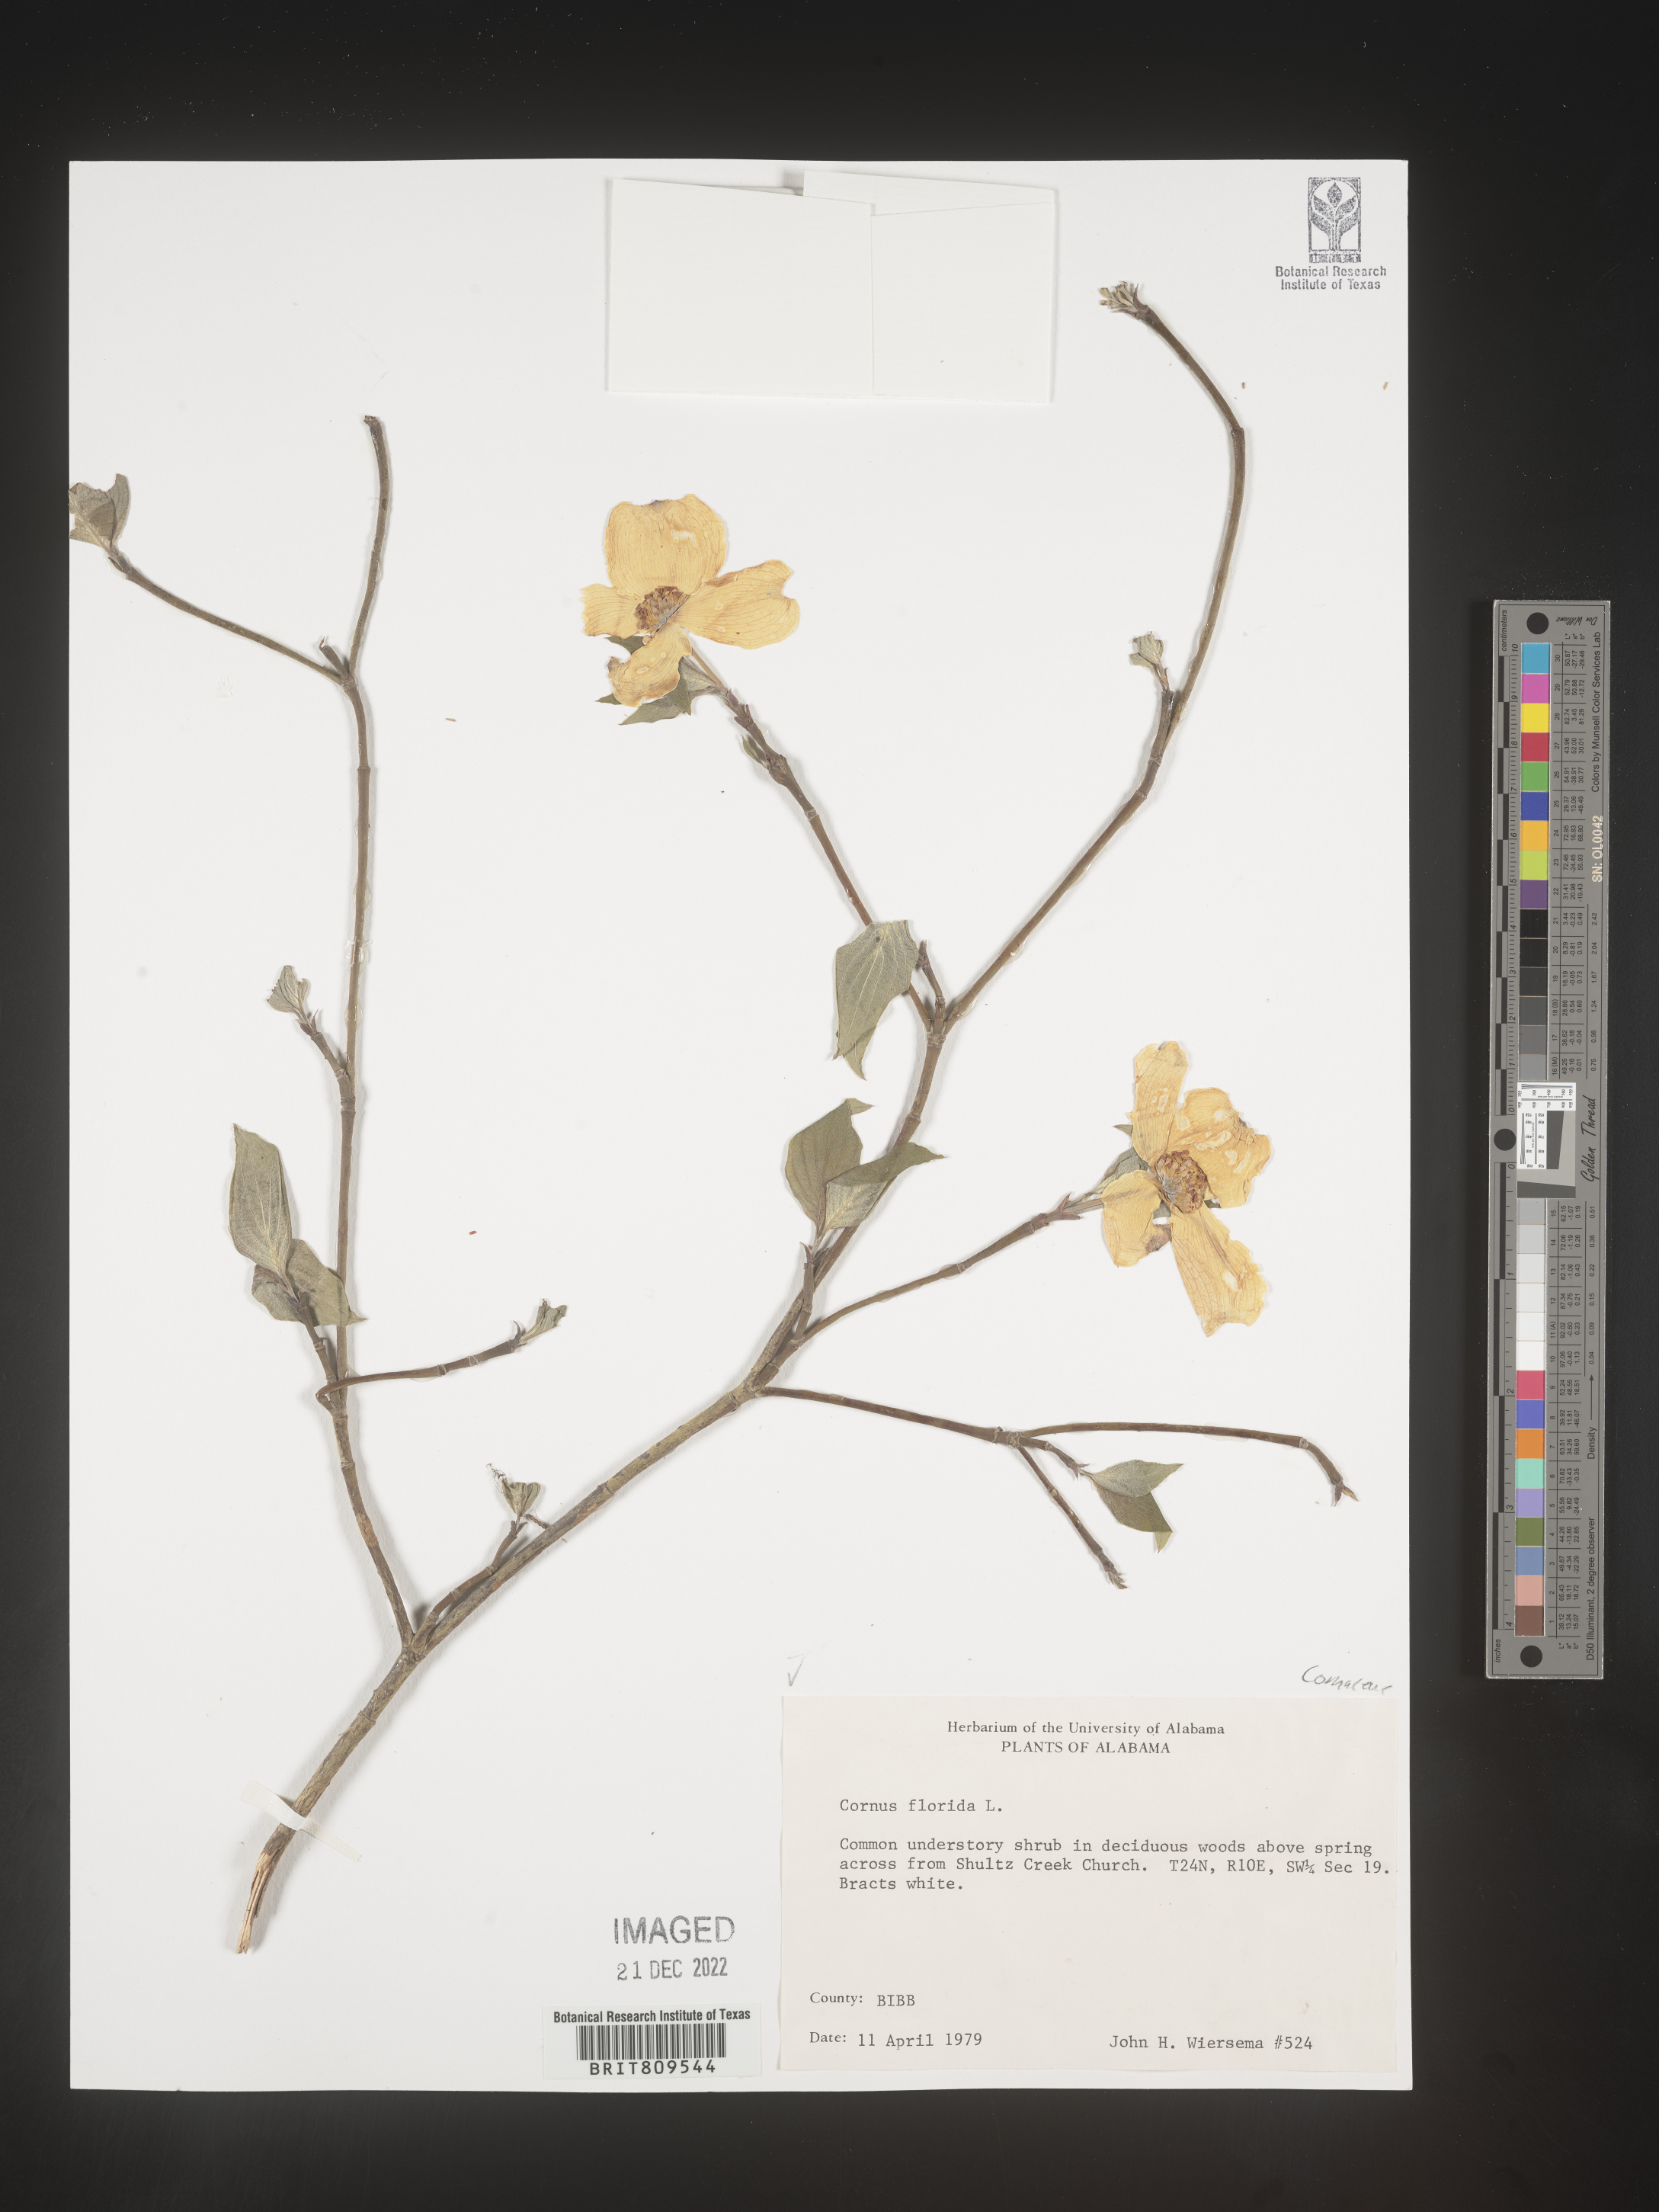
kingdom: Plantae
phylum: Tracheophyta
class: Magnoliopsida
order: Cornales
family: Cornaceae
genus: Cornus
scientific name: Cornus florida
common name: Flowering dogwood
